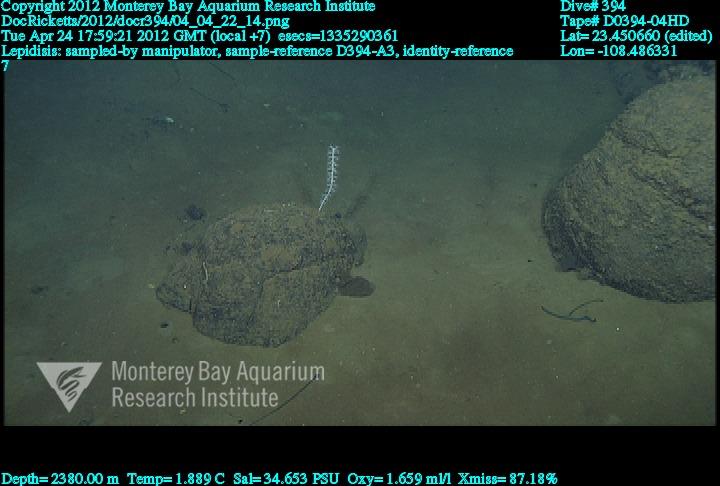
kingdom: Animalia
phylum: Cnidaria
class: Anthozoa
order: Scleralcyonacea
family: Keratoisididae
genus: Lepidisis
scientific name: Lepidisis
